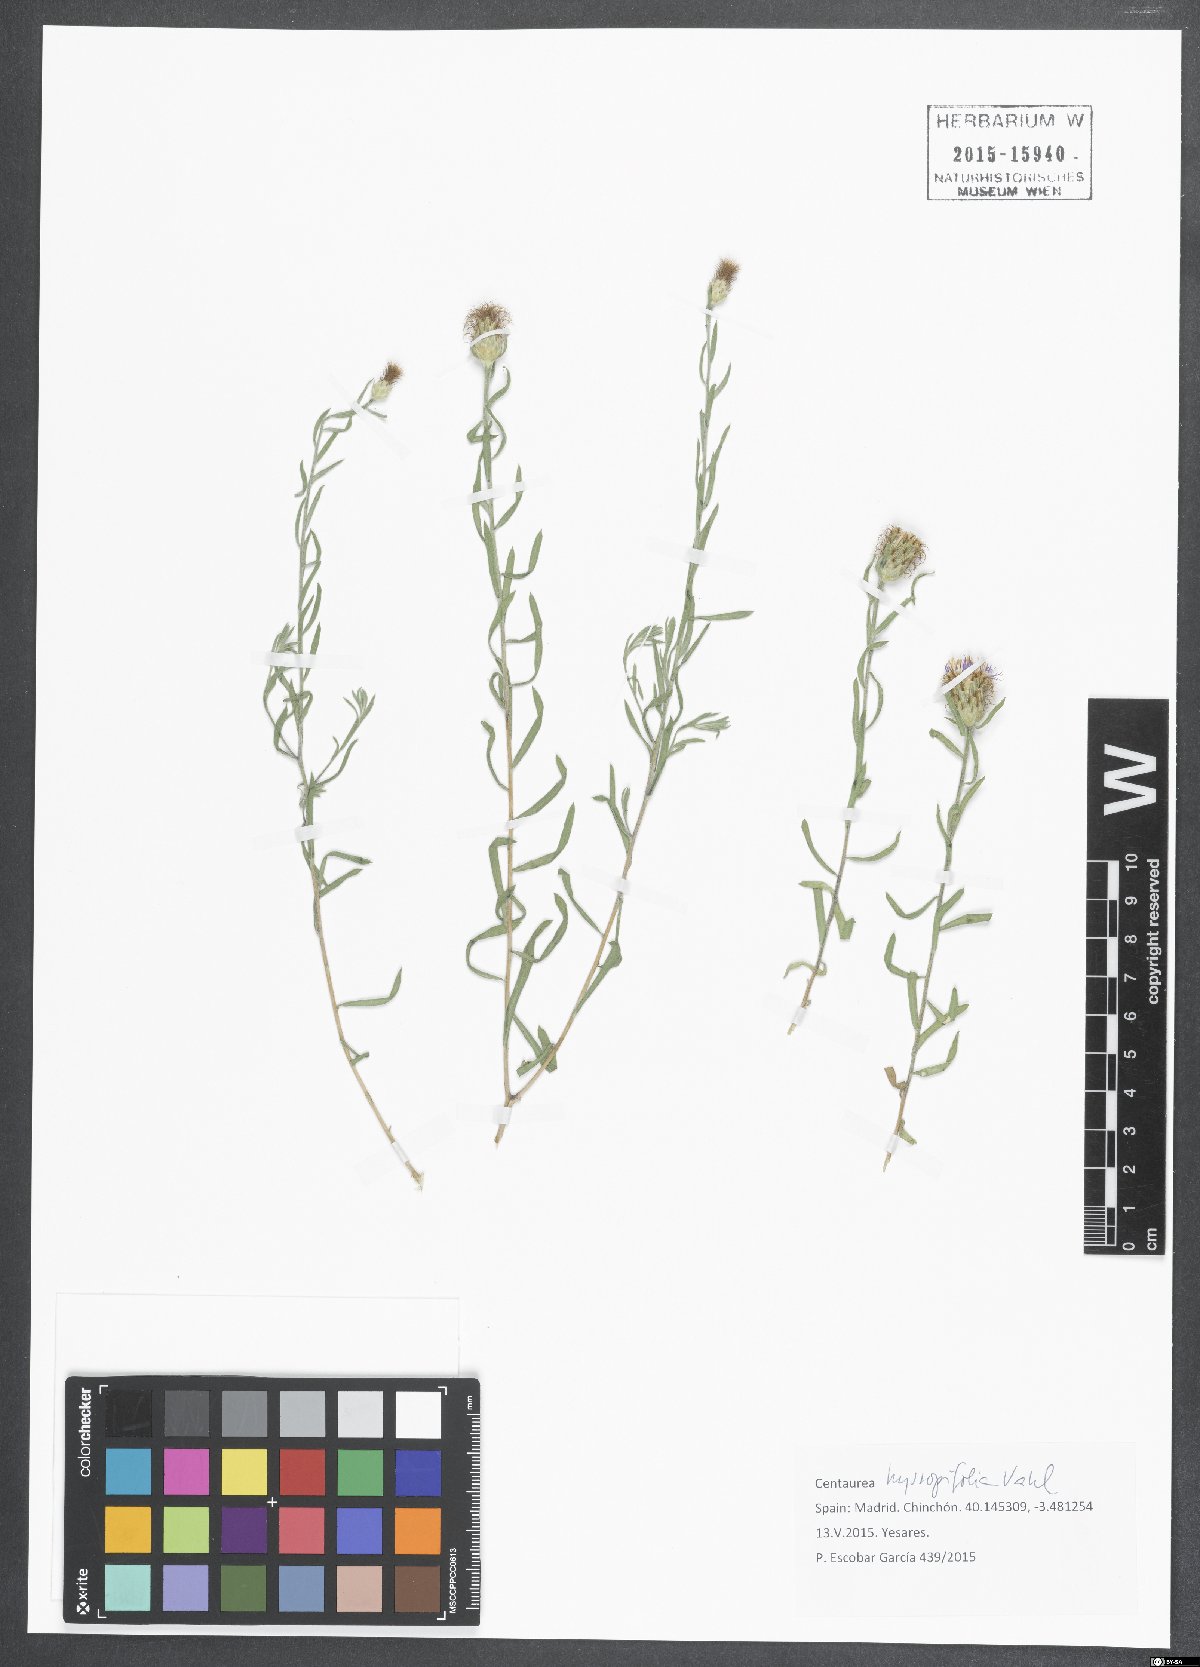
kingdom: Plantae
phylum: Tracheophyta
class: Magnoliopsida
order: Asterales
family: Asteraceae
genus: Centaurea
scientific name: Centaurea hyssopifolia
